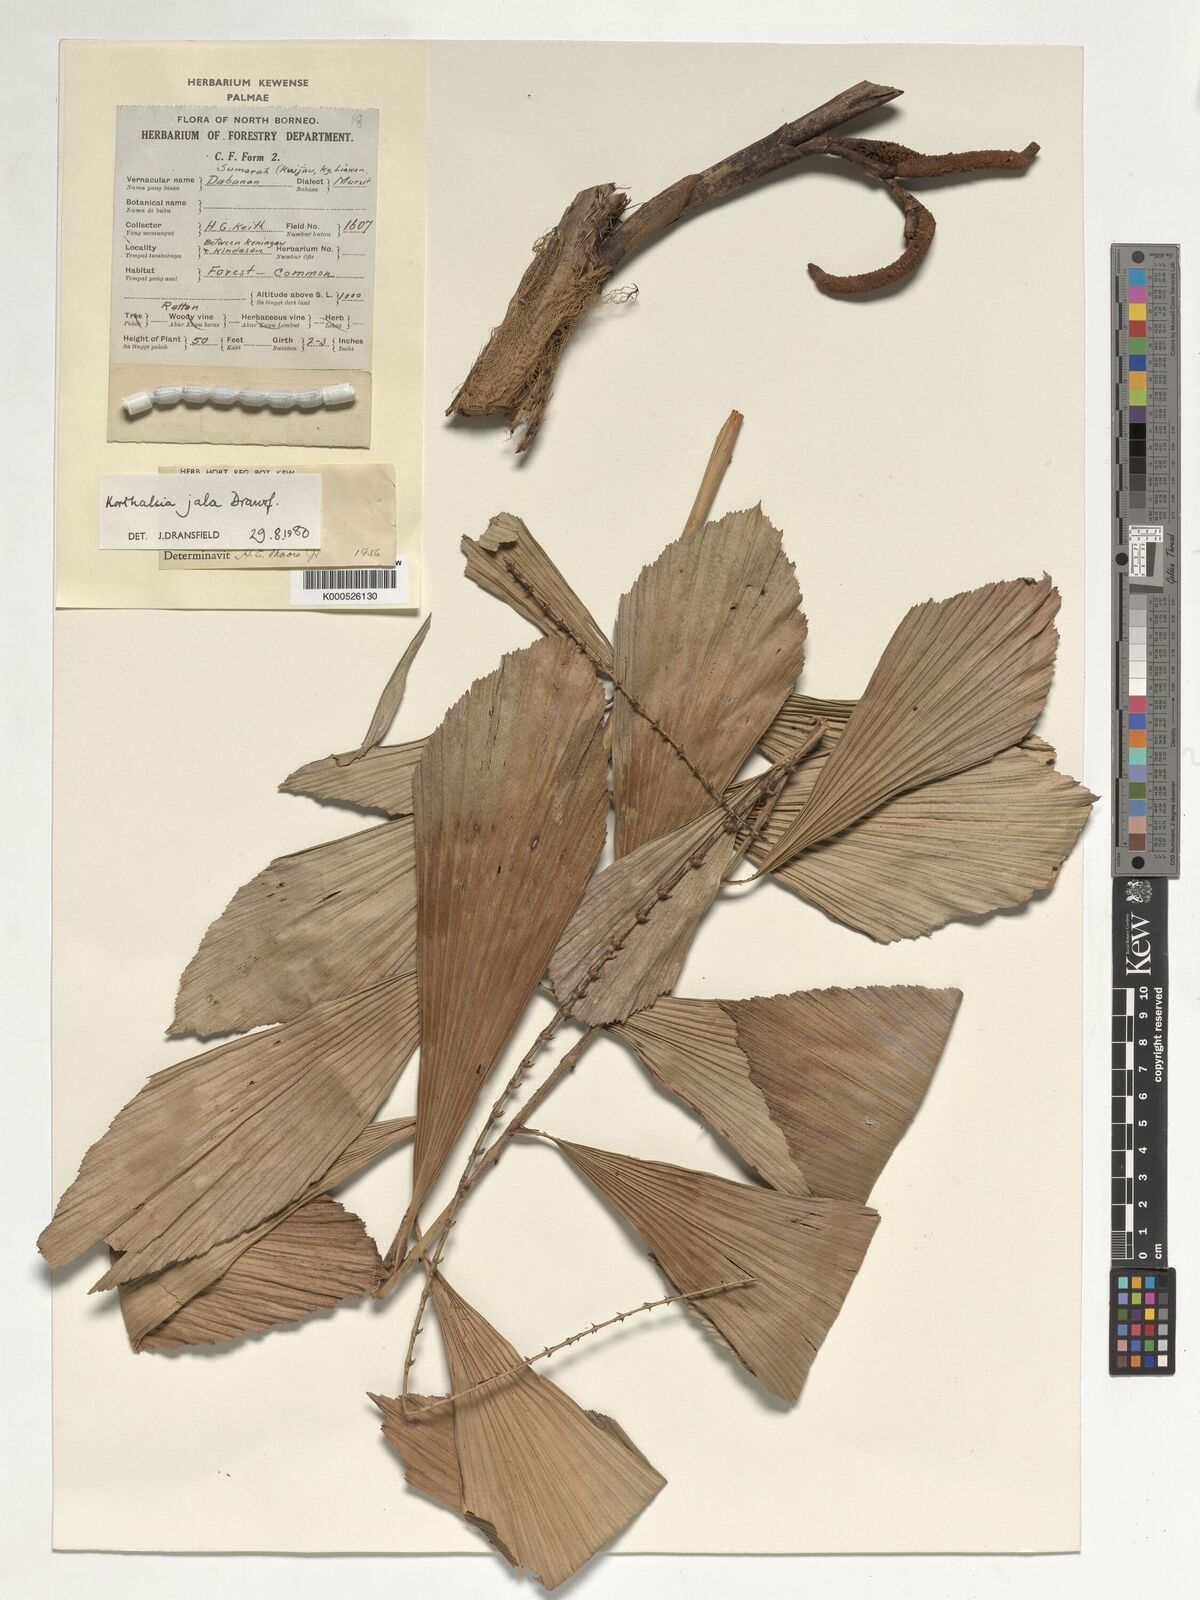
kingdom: Plantae
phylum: Tracheophyta
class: Liliopsida
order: Arecales
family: Arecaceae
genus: Korthalsia
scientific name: Korthalsia jala
